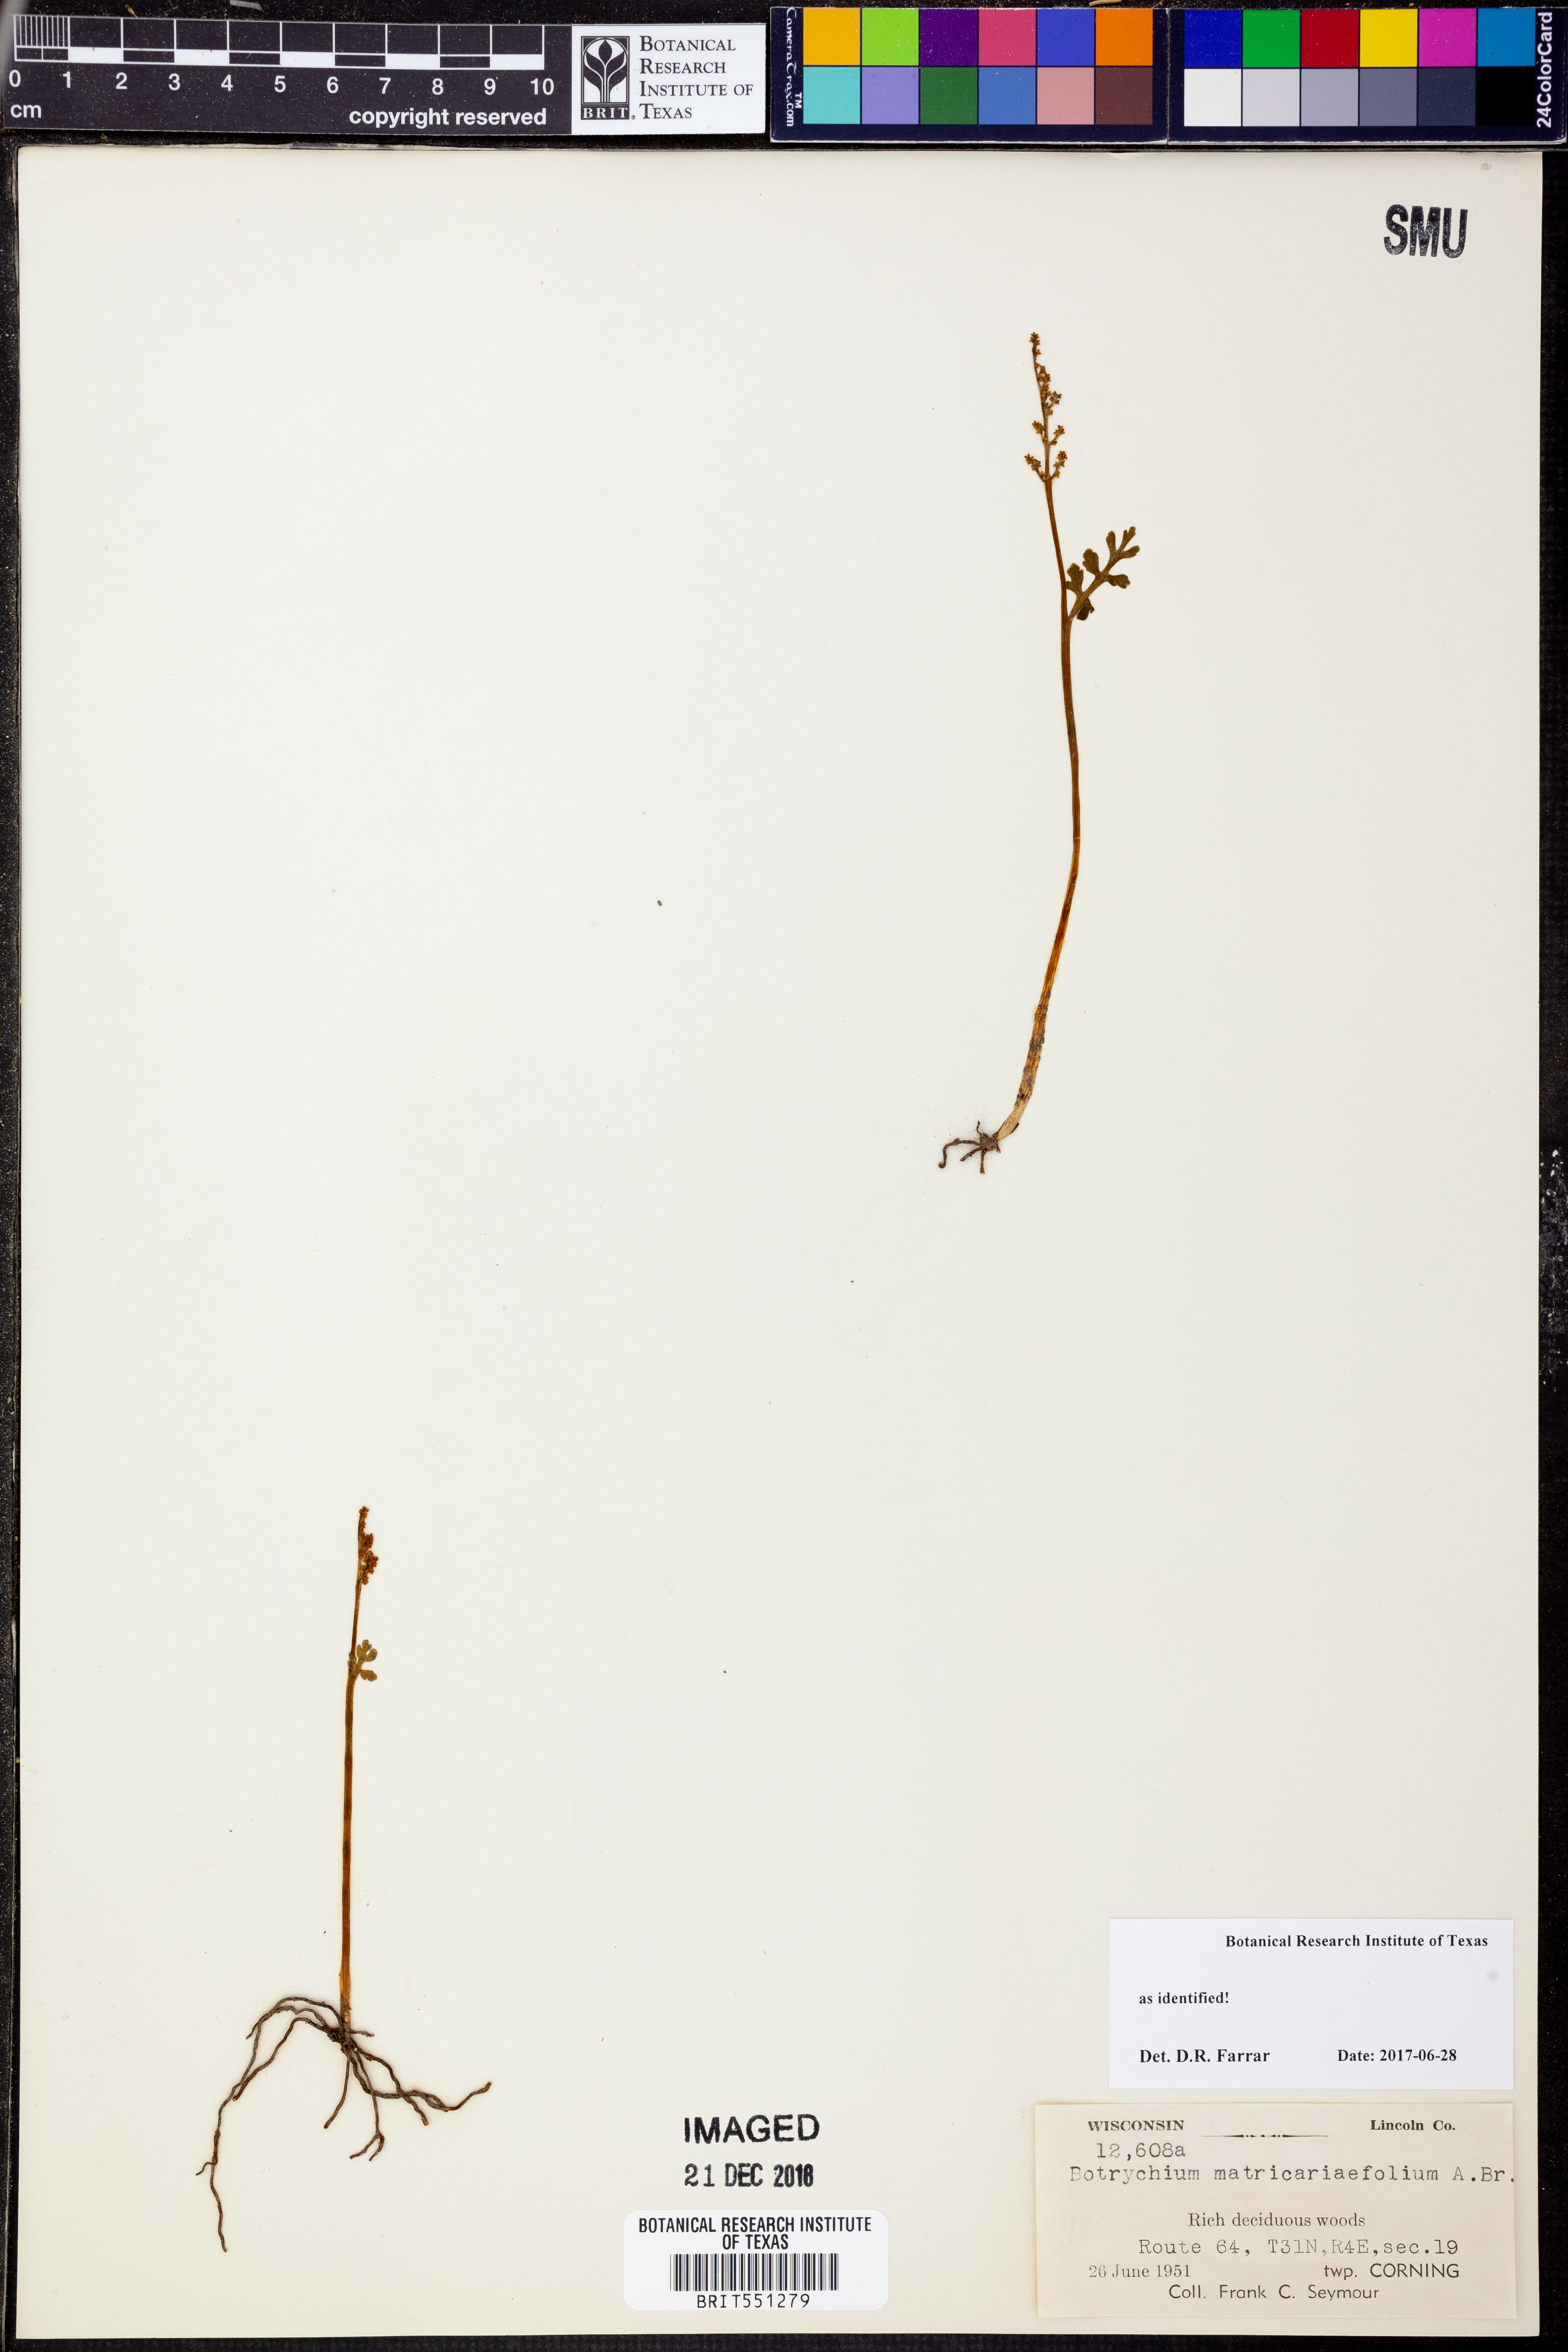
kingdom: Plantae
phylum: Tracheophyta
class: Polypodiopsida
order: Ophioglossales
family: Ophioglossaceae
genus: Botrychium
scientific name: Botrychium matricariifolium
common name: Branched moonwort
